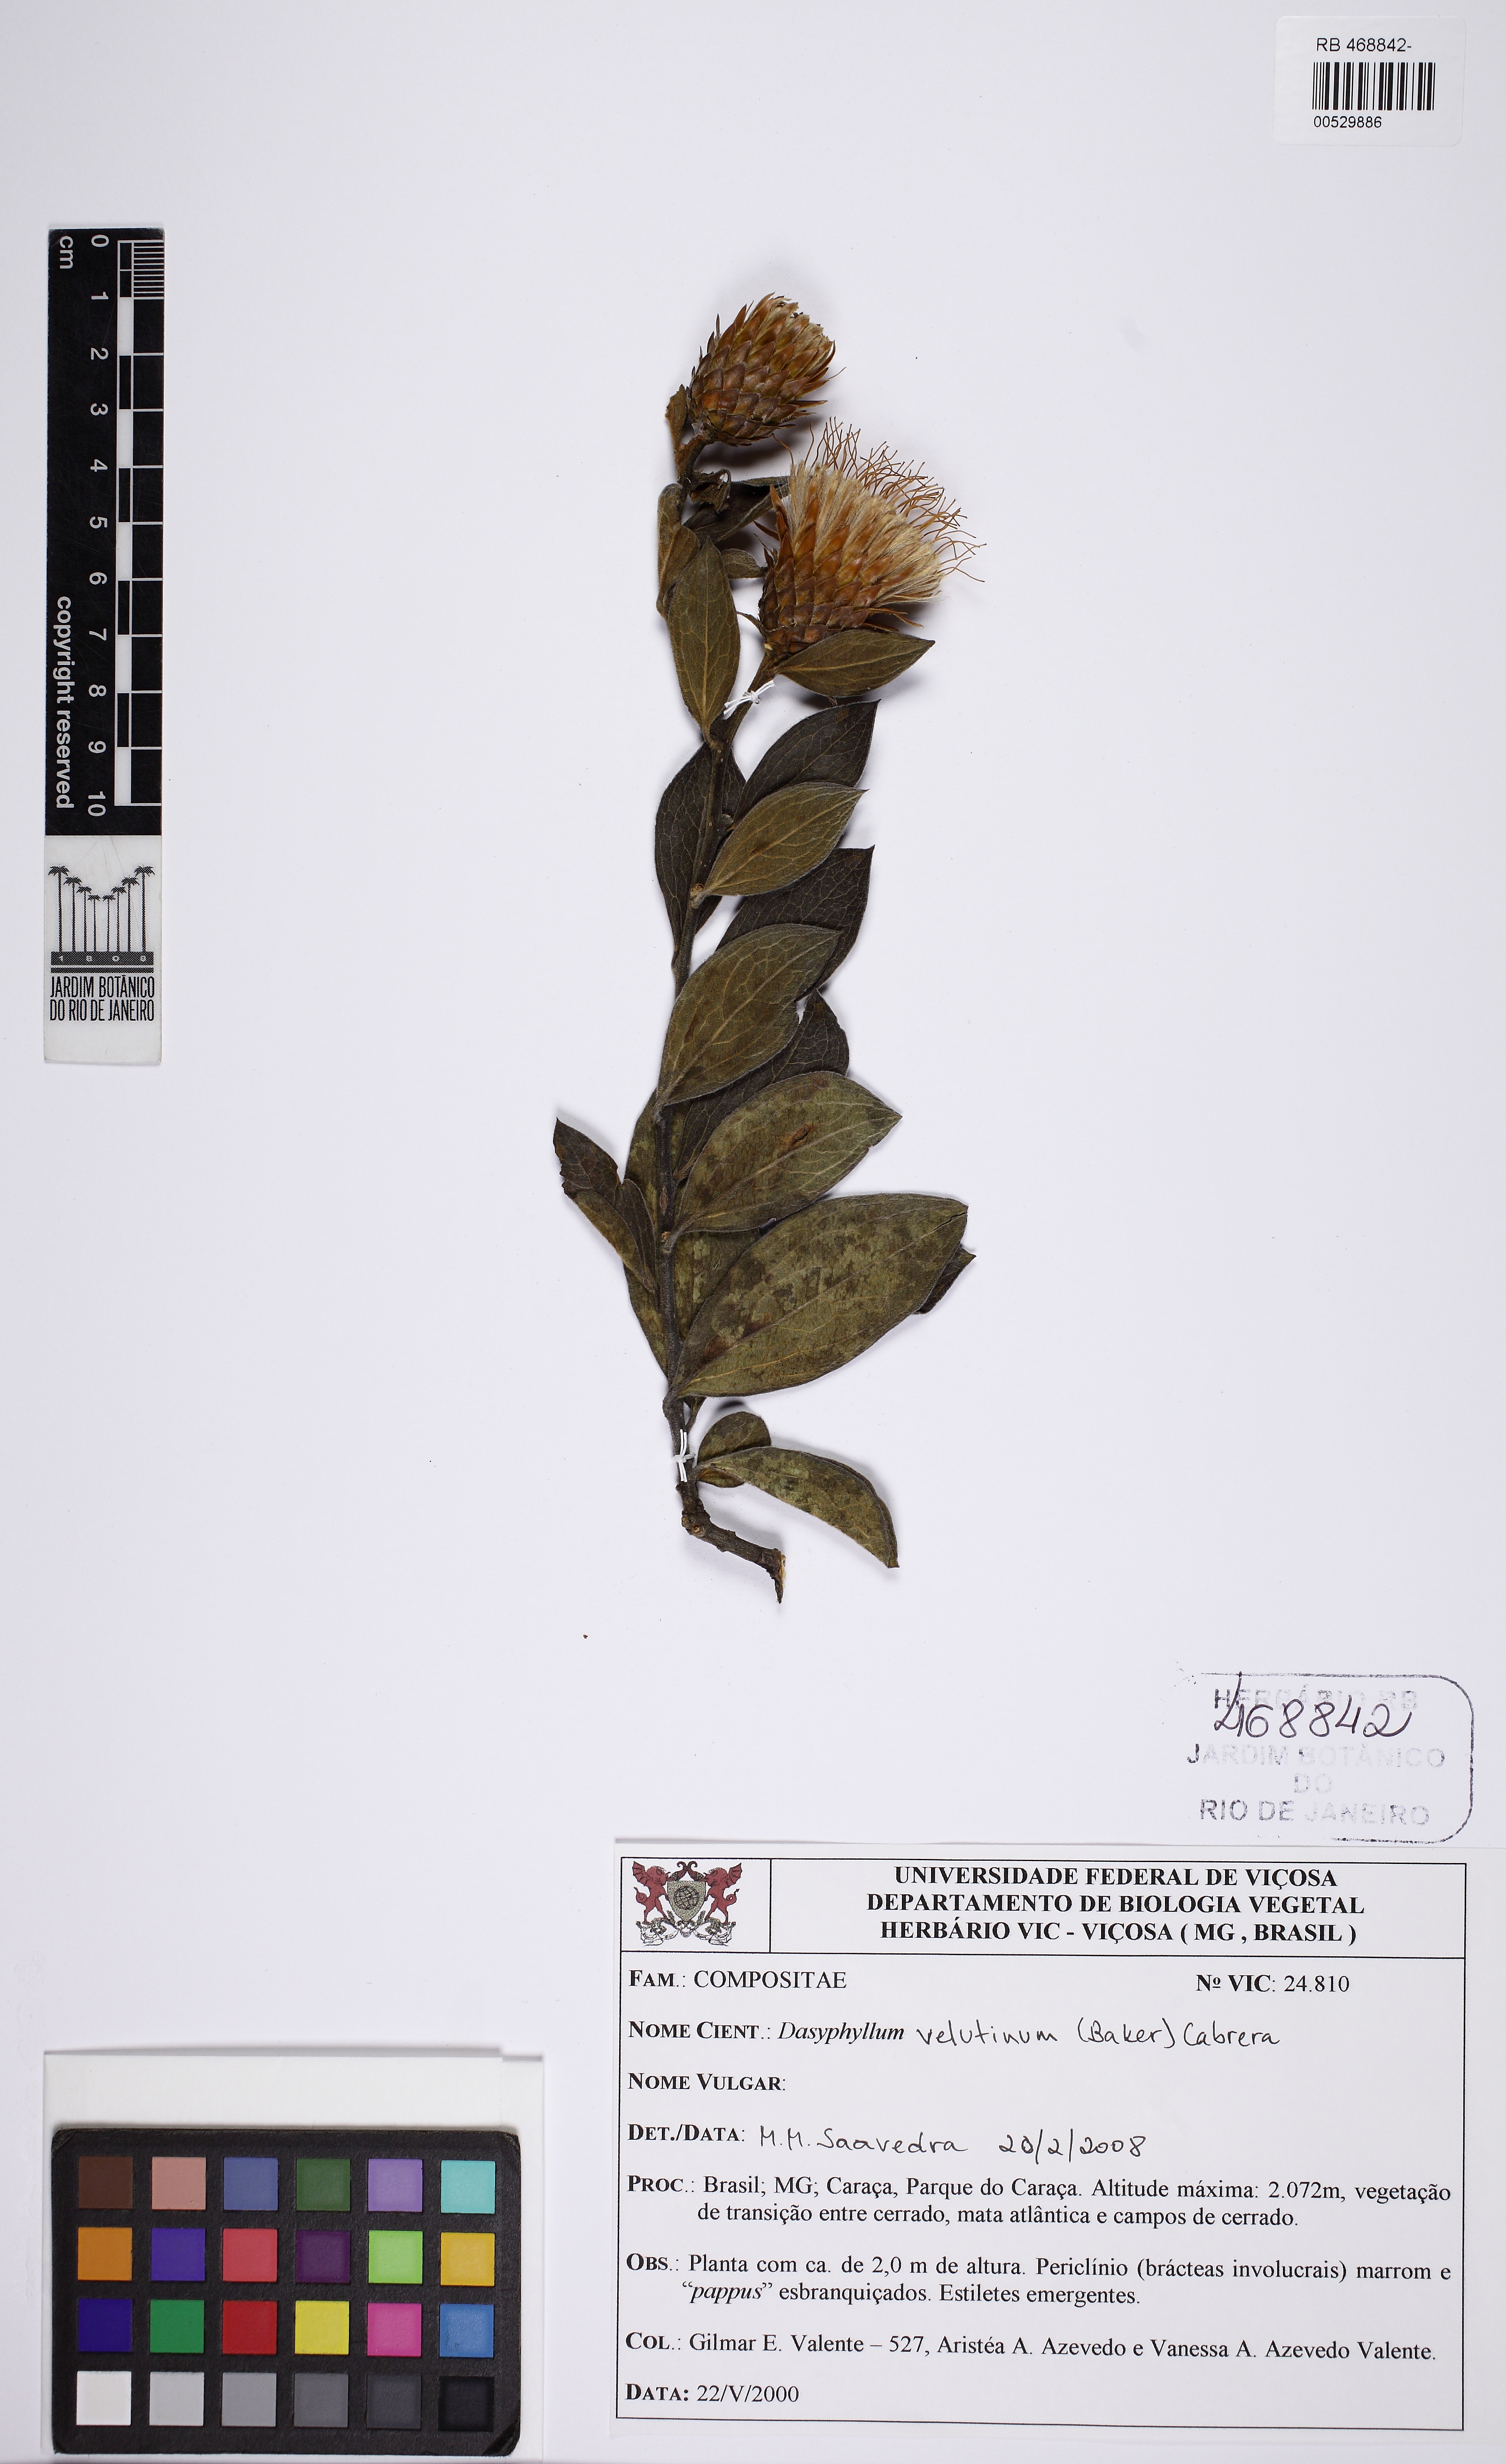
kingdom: Plantae
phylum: Tracheophyta
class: Magnoliopsida
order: Asterales
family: Asteraceae
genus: Dasyphyllum
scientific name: Dasyphyllum sprengelianum
